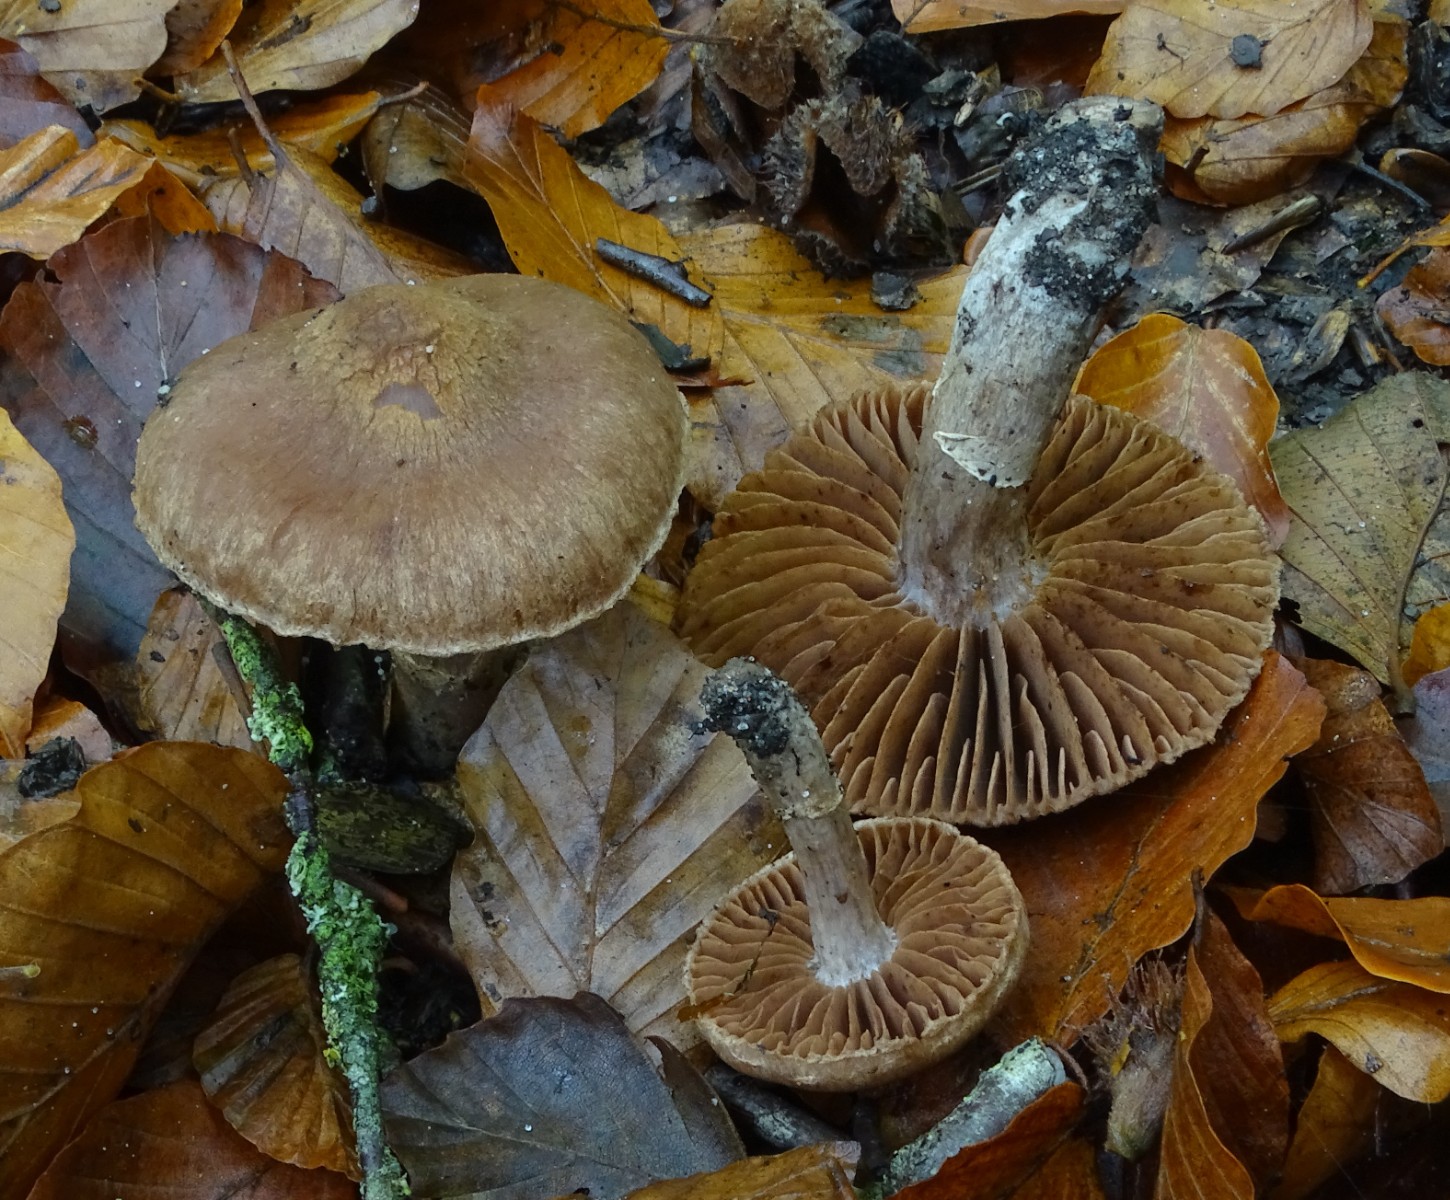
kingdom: Fungi
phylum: Basidiomycota
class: Agaricomycetes
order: Agaricales
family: Cortinariaceae
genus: Cortinarius
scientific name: Cortinarius hinnuleus
